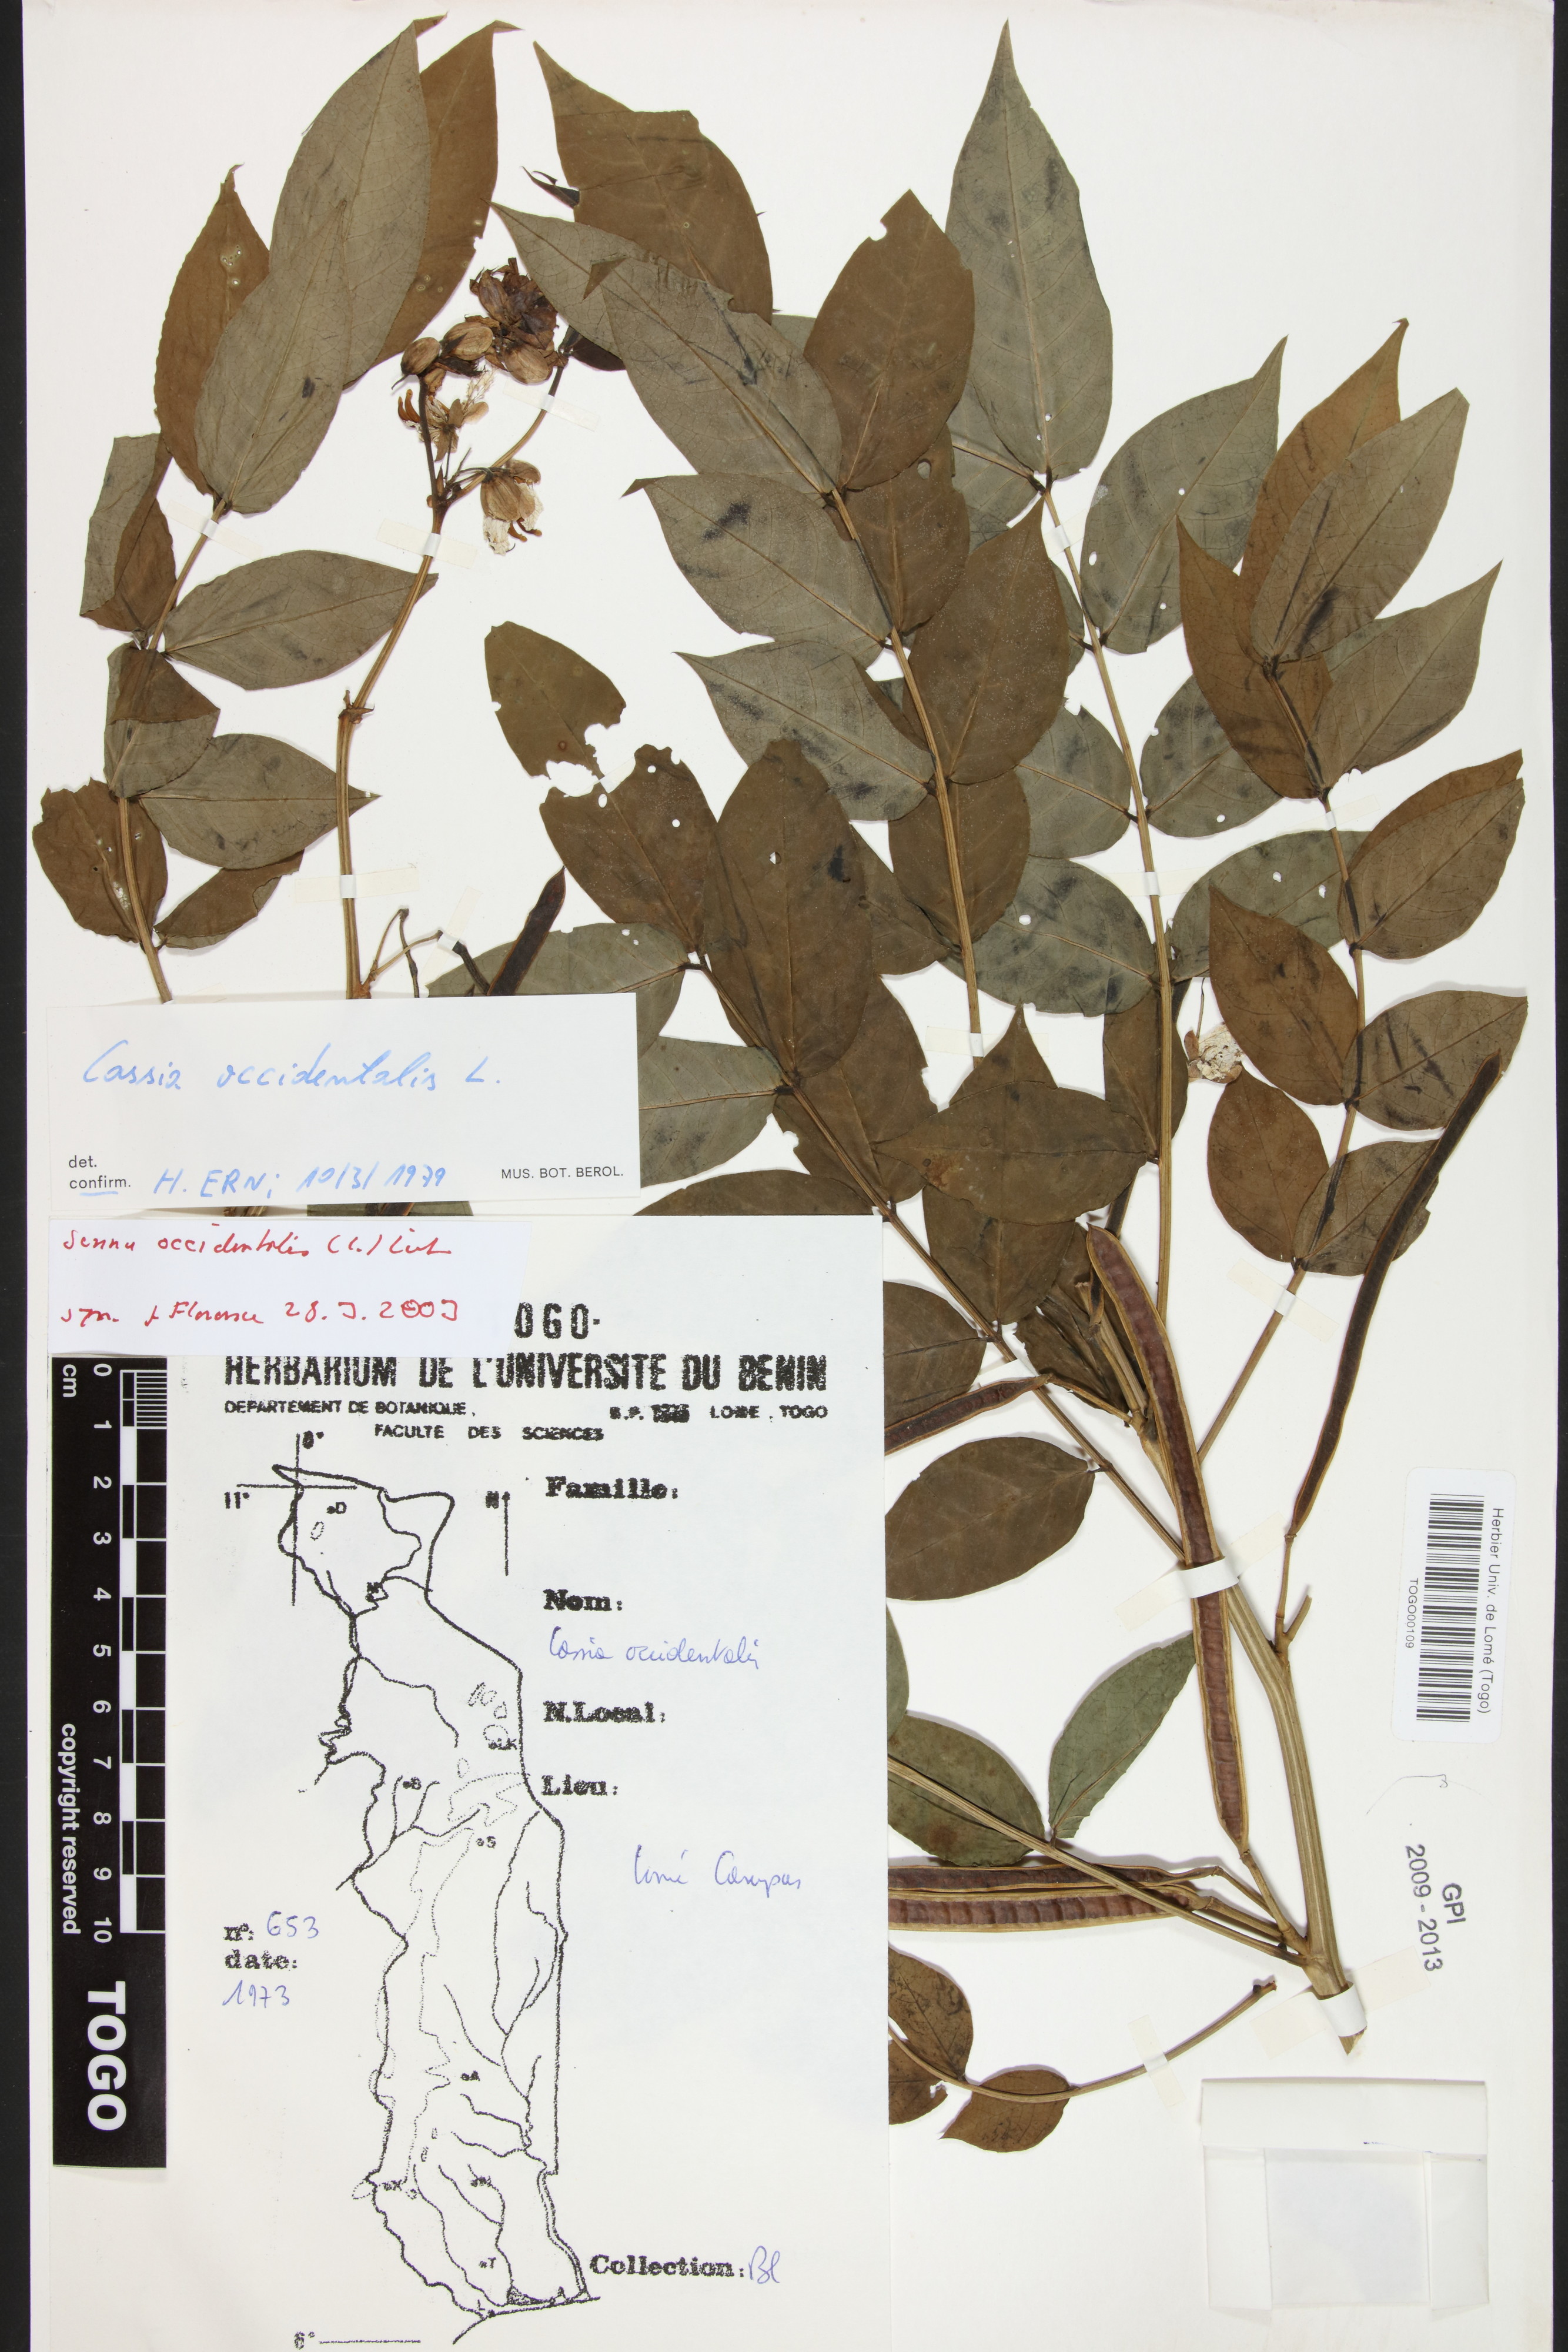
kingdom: Plantae
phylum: Tracheophyta
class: Magnoliopsida
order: Fabales
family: Fabaceae
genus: Senna
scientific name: Senna occidentalis
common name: Septicweed
